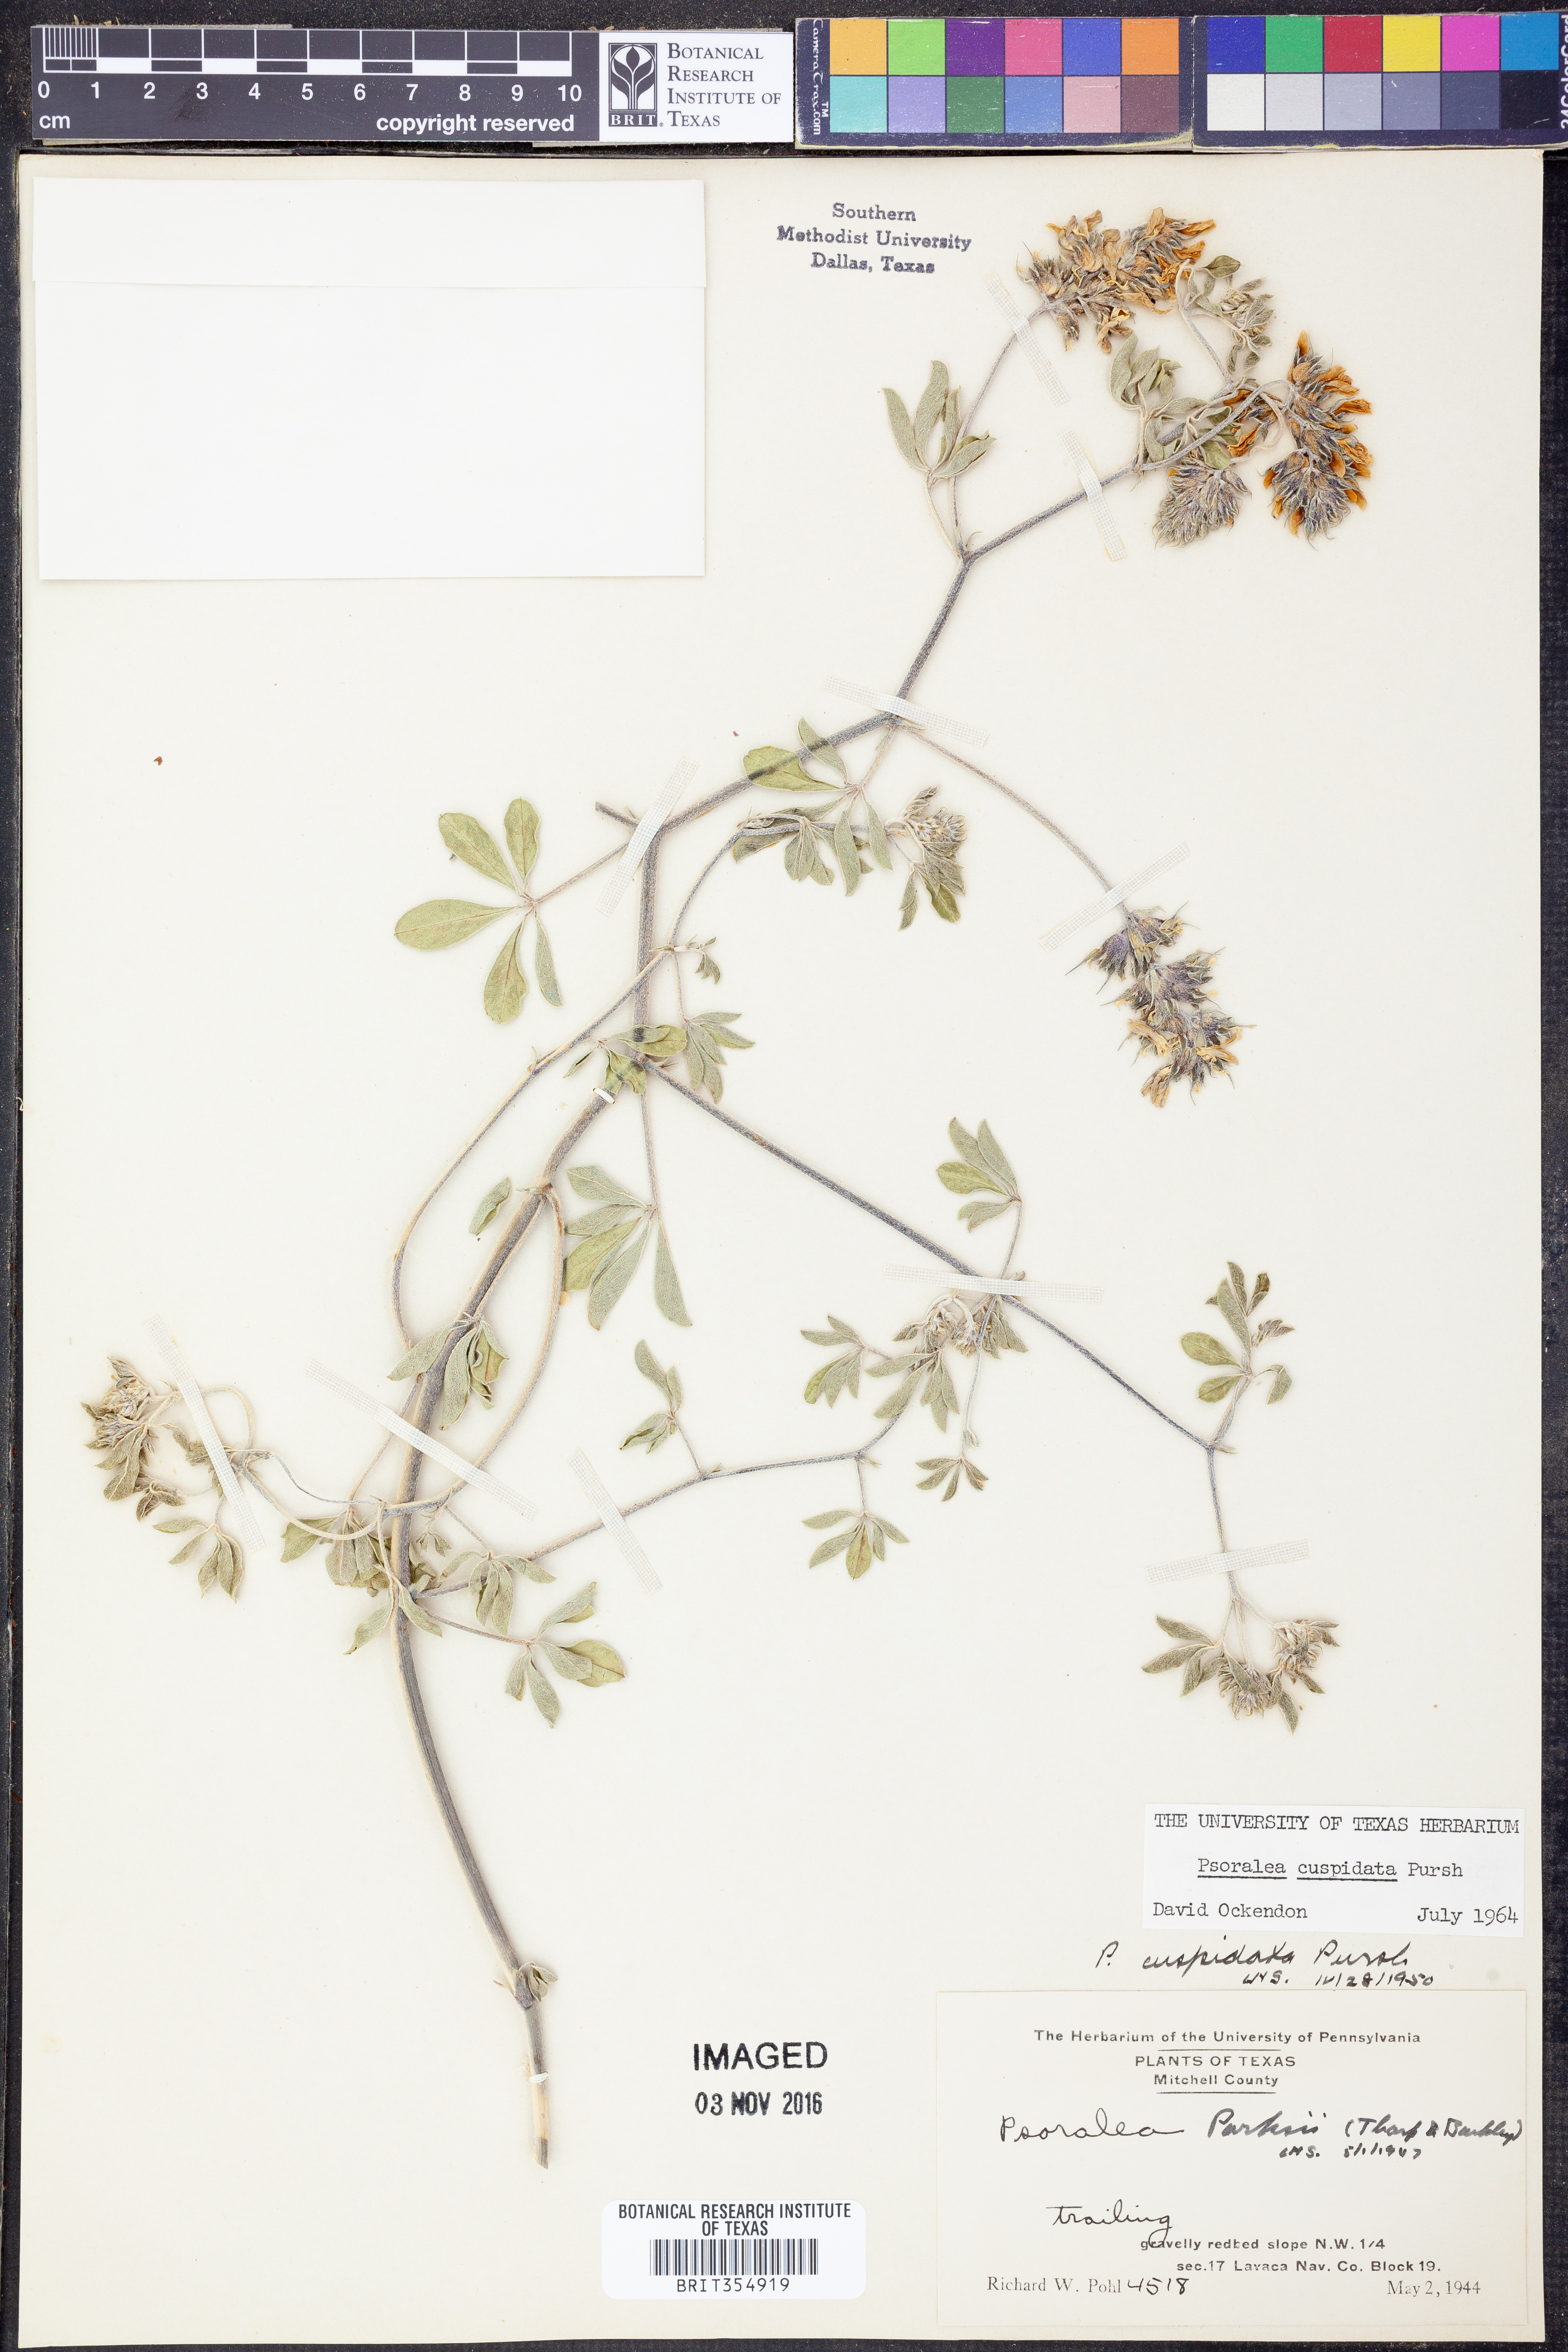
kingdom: Plantae
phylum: Tracheophyta
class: Magnoliopsida
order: Fabales
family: Fabaceae
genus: Pediomelum
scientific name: Pediomelum cuspidatum
